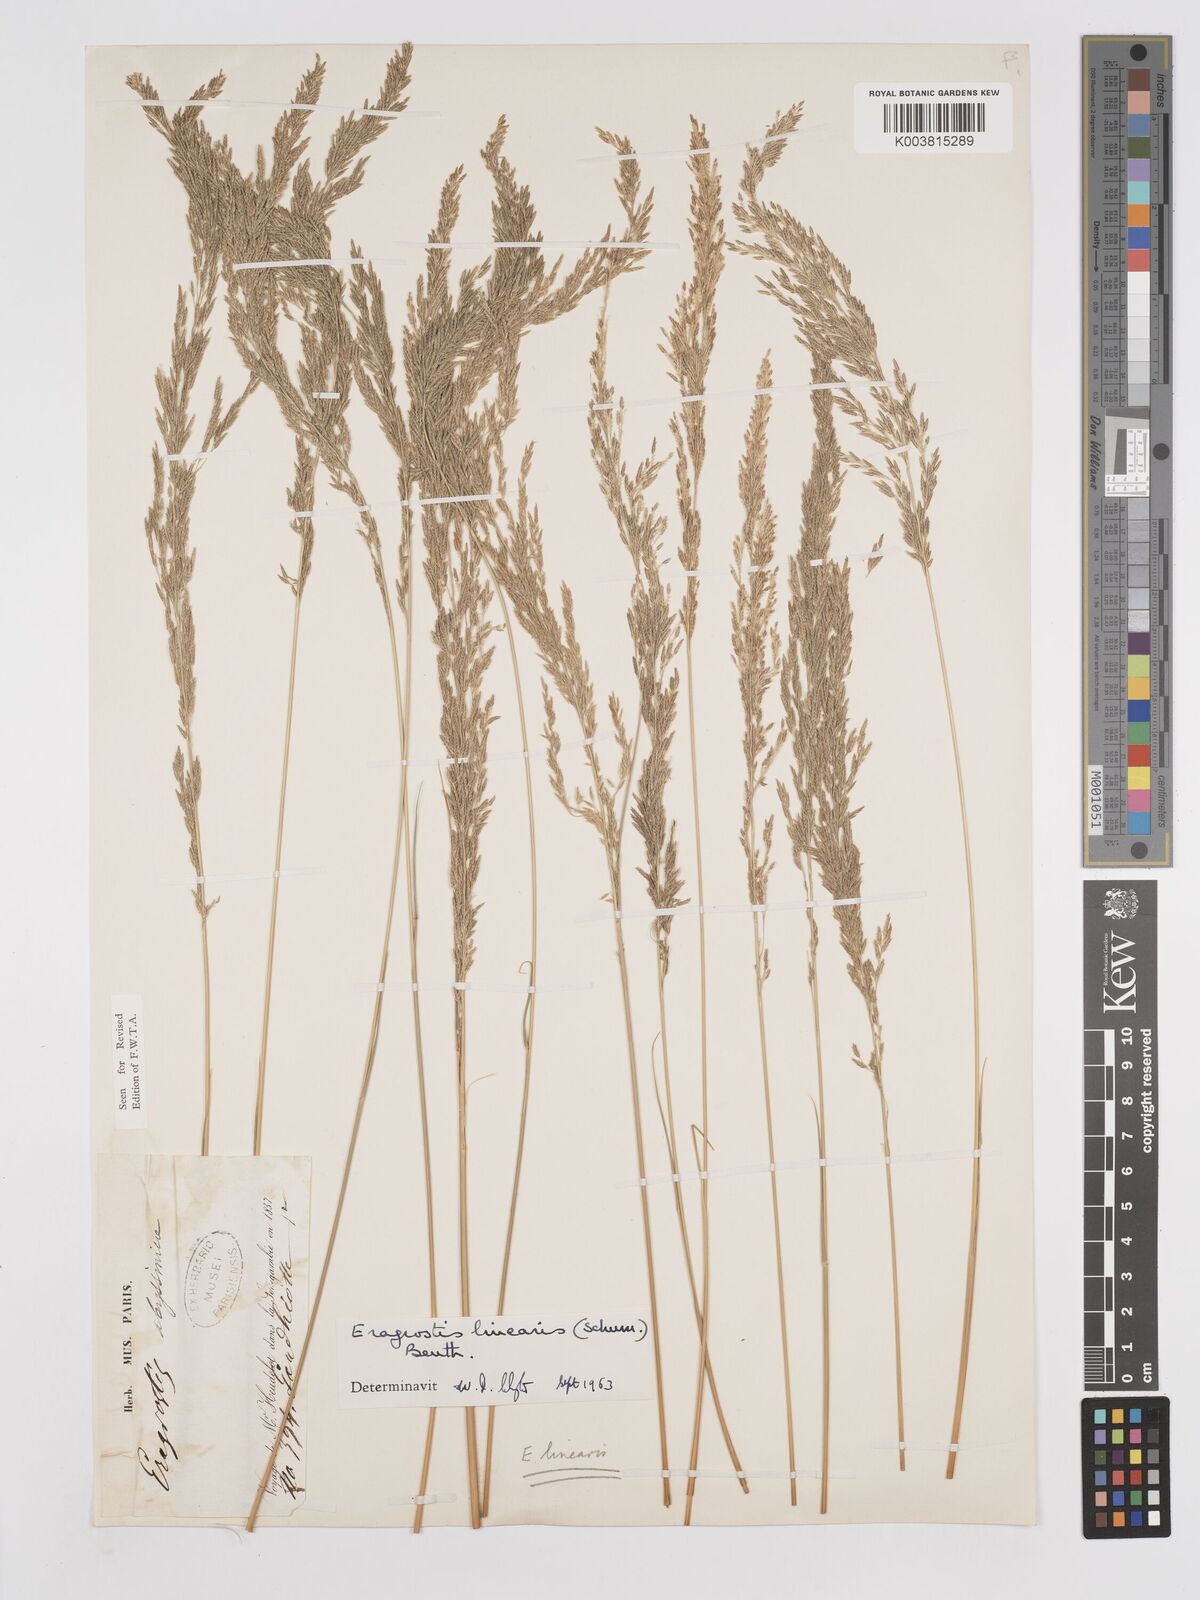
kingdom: Plantae
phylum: Tracheophyta
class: Liliopsida
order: Poales
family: Poaceae
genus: Eragrostis
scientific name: Eragrostis prolifera
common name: Dominican lovegrass
